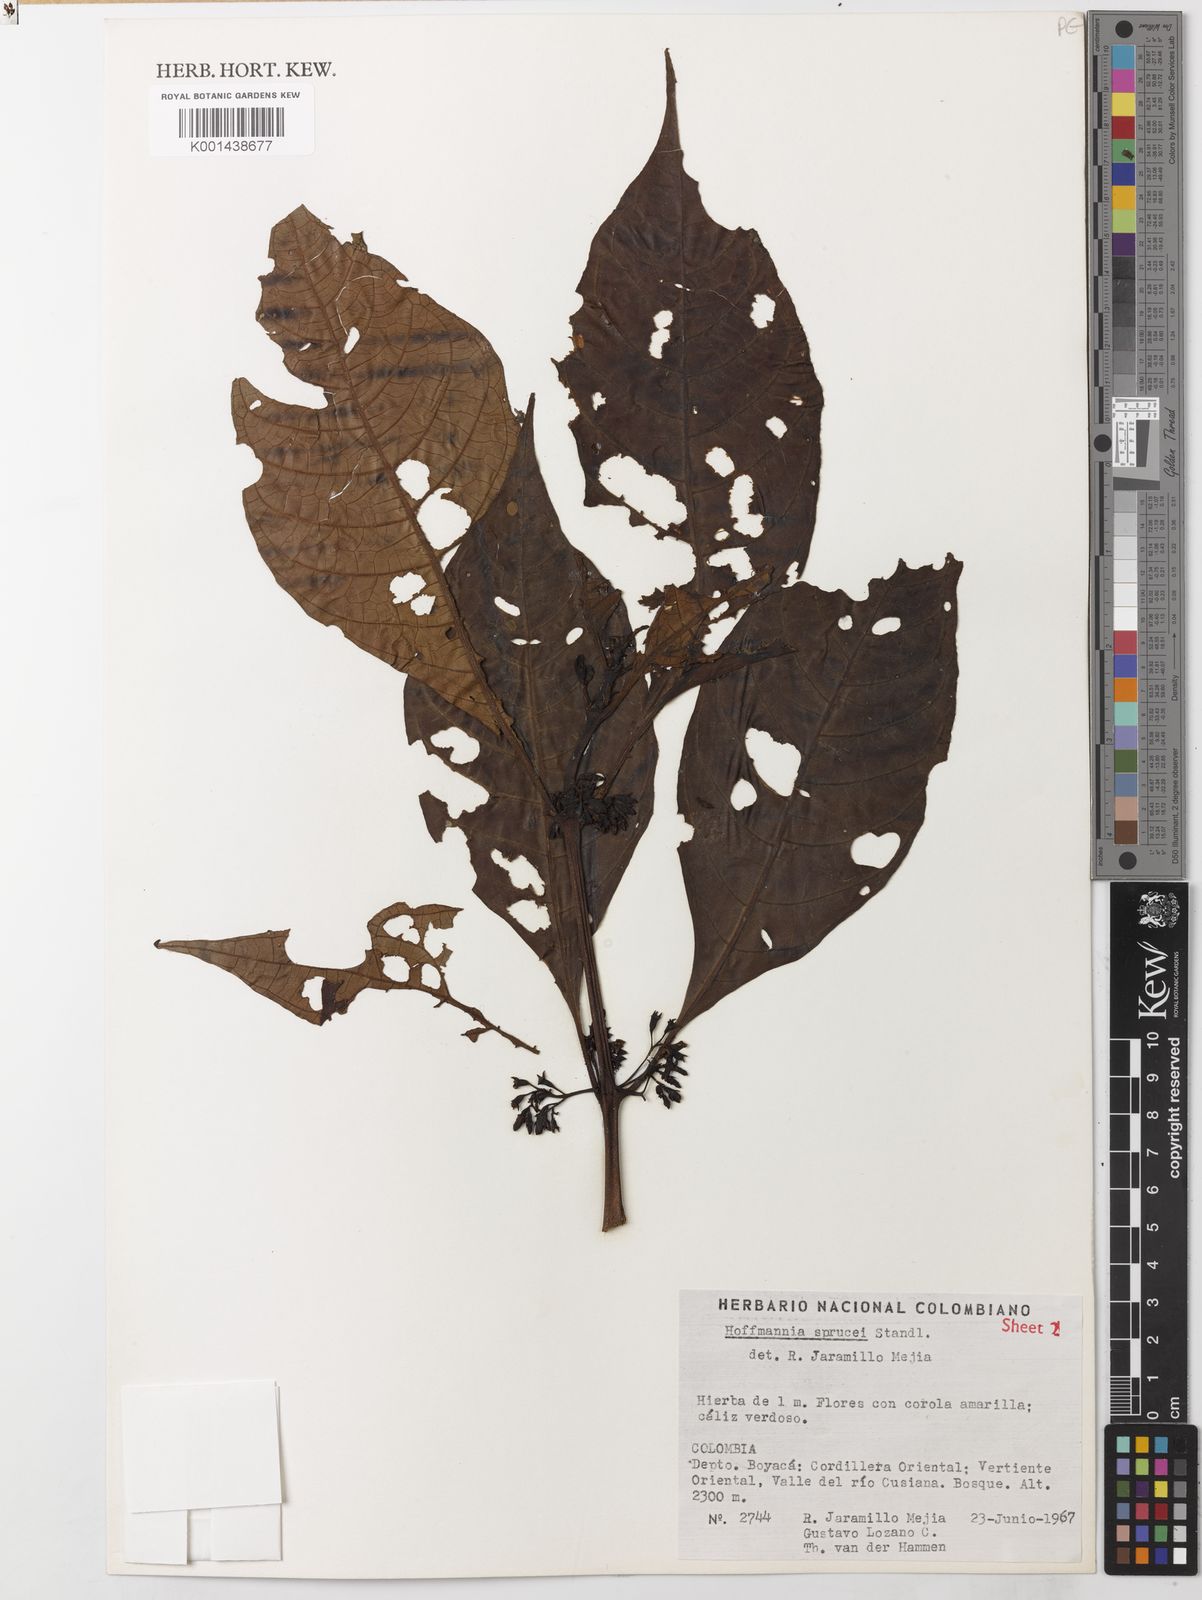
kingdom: Plantae
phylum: Tracheophyta
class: Magnoliopsida
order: Gentianales
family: Rubiaceae
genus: Hoffmannia
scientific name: Hoffmannia sprucei
